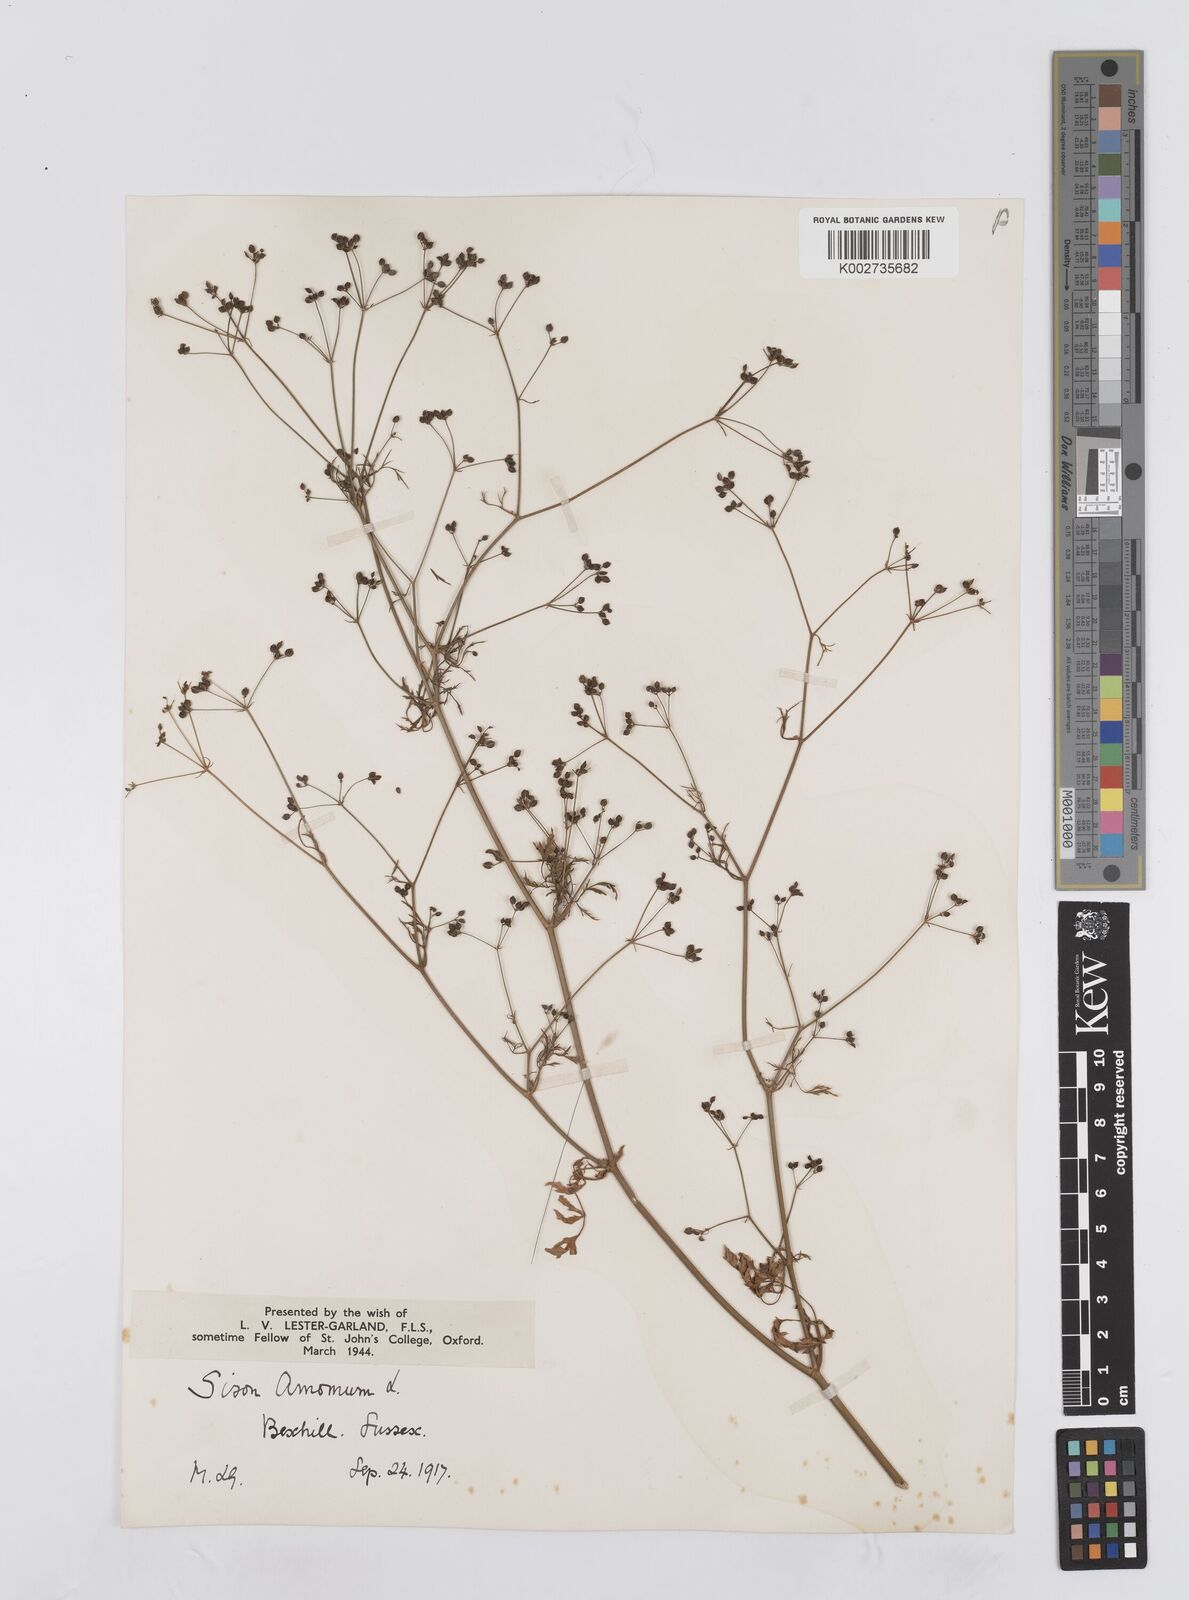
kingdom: Plantae
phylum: Tracheophyta
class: Magnoliopsida
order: Apiales
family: Apiaceae
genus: Sison
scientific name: Sison amomum
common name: Stone-parsley
